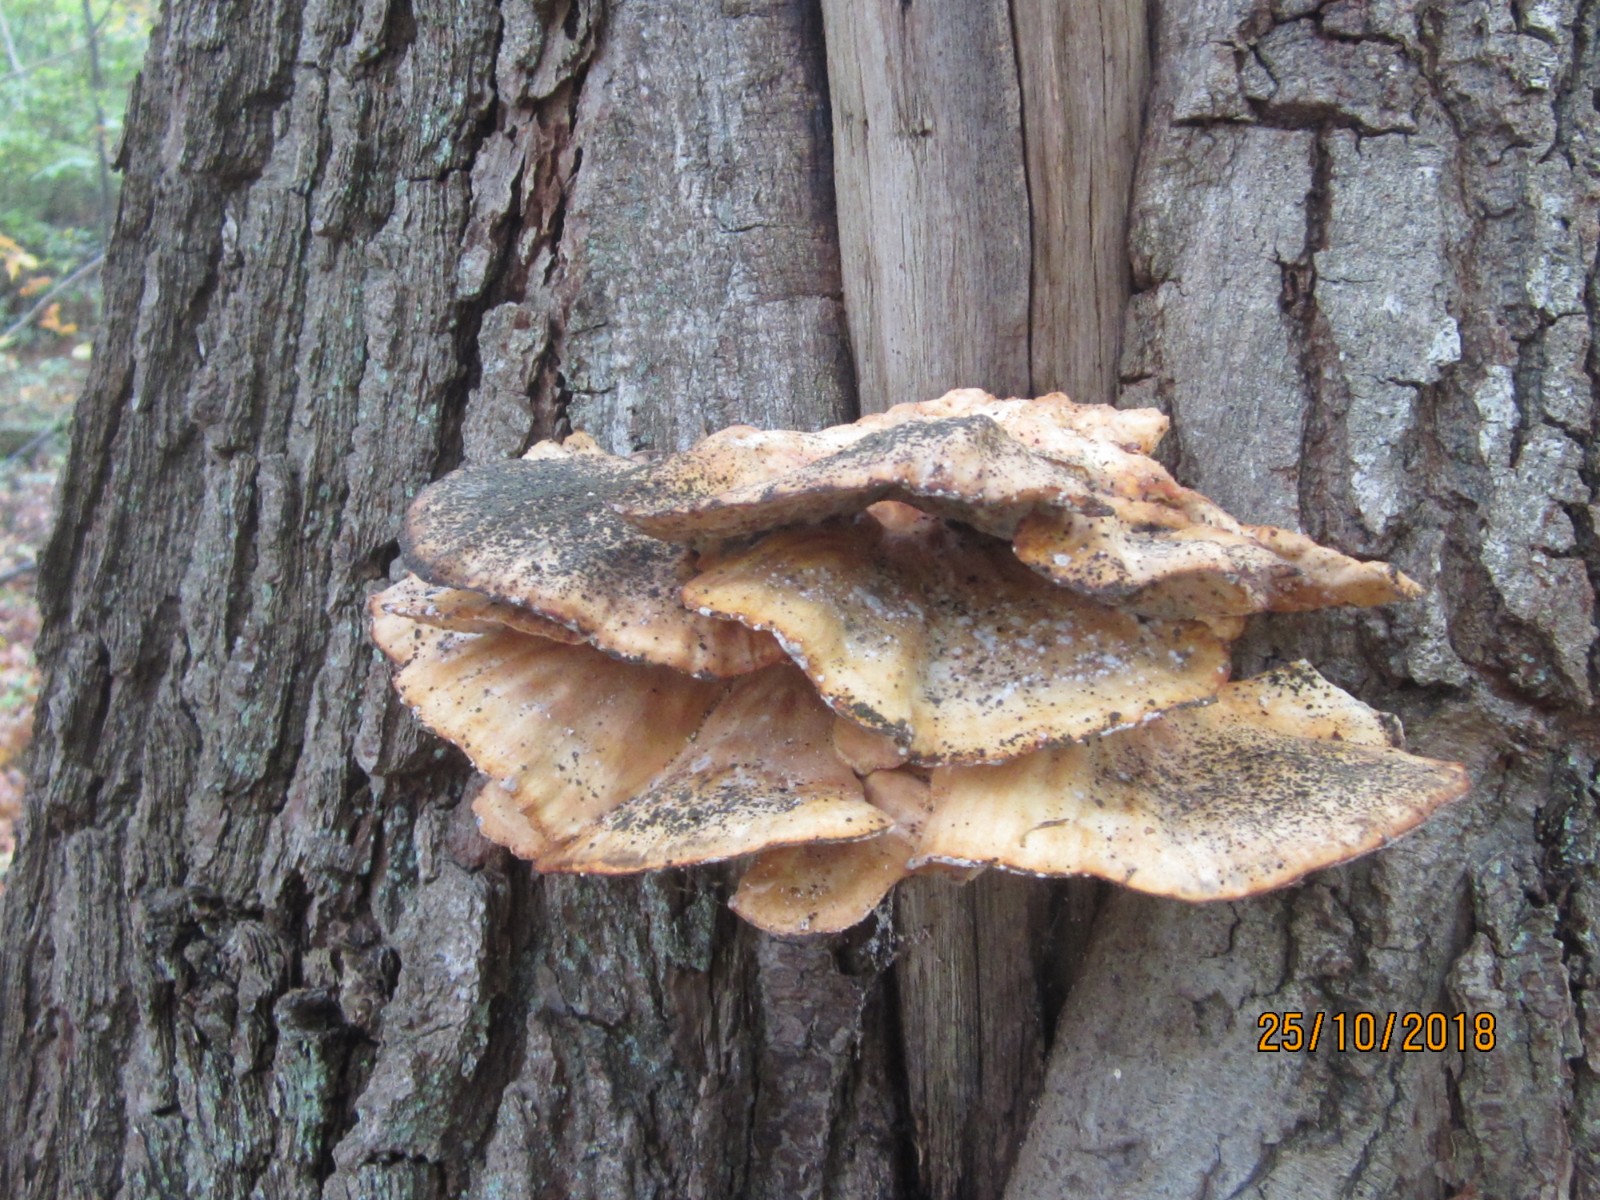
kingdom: Fungi
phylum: Basidiomycota
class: Agaricomycetes
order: Polyporales
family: Laetiporaceae
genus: Laetiporus
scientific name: Laetiporus sulphureus
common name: svovlporesvamp
